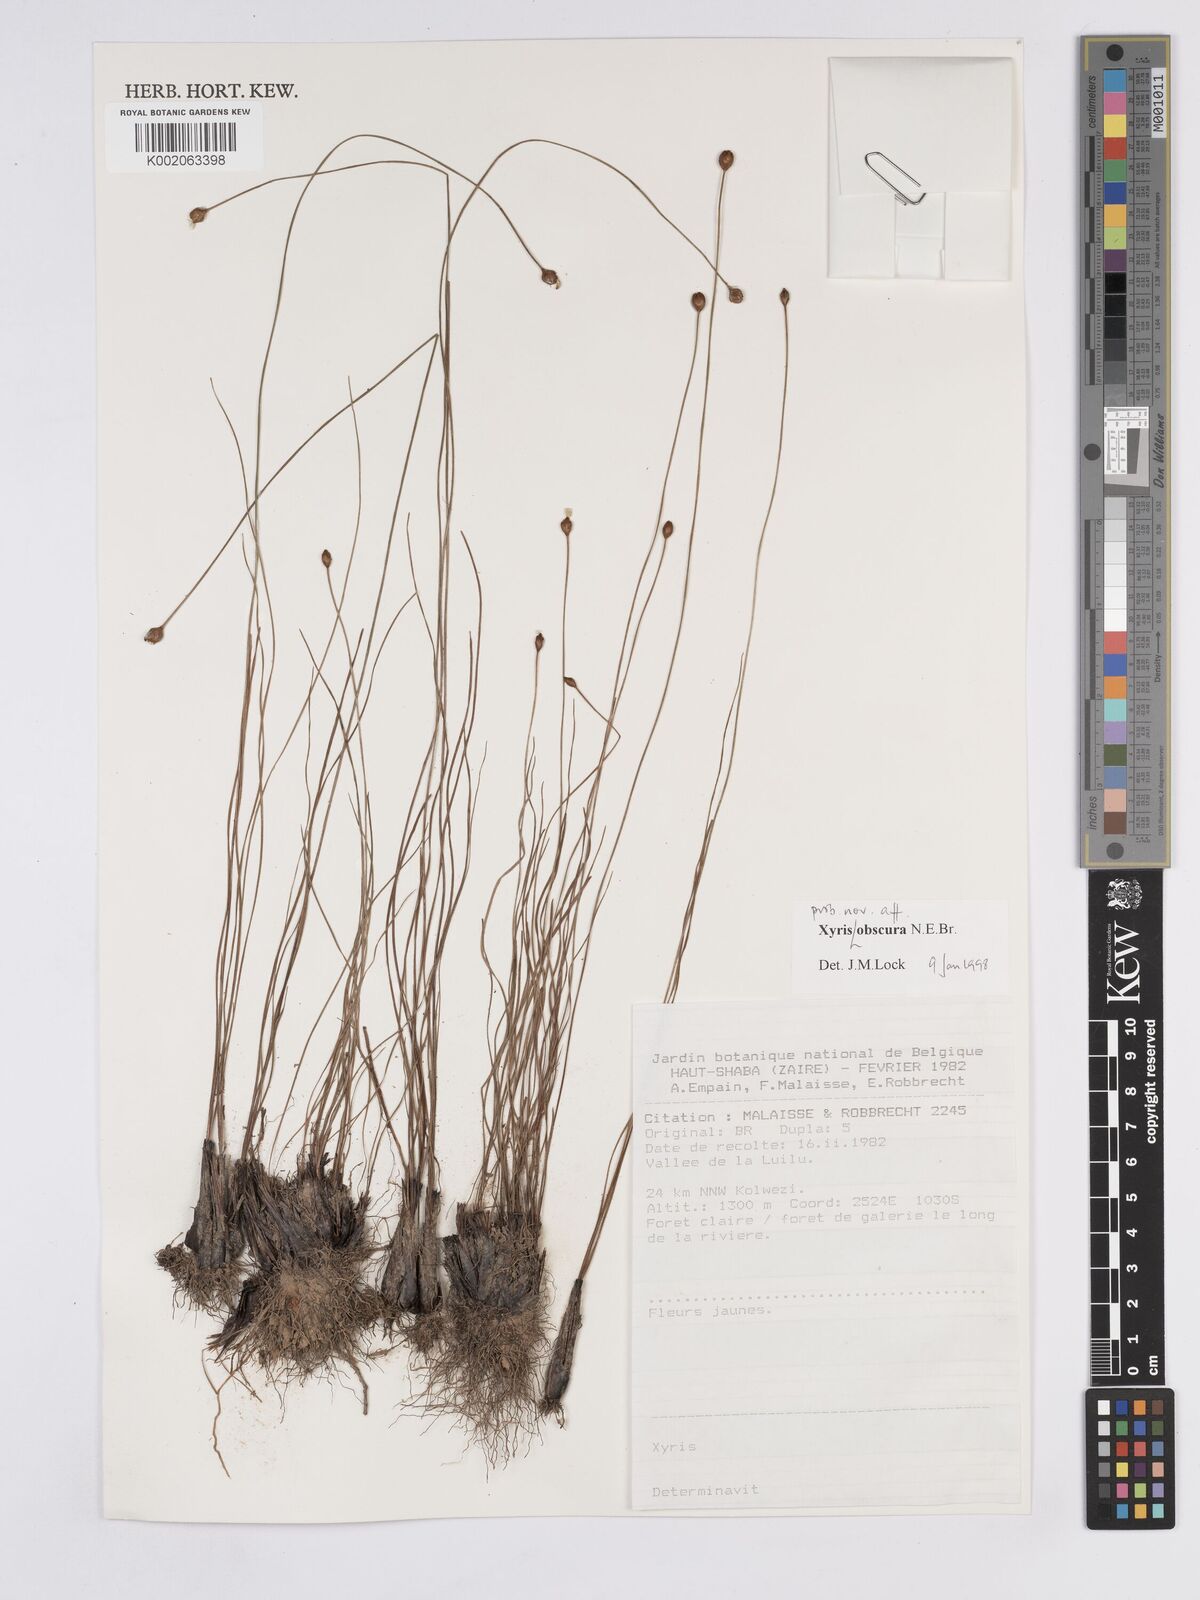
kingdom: Plantae
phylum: Tracheophyta
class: Liliopsida
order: Poales
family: Xyridaceae
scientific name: Xyridaceae
